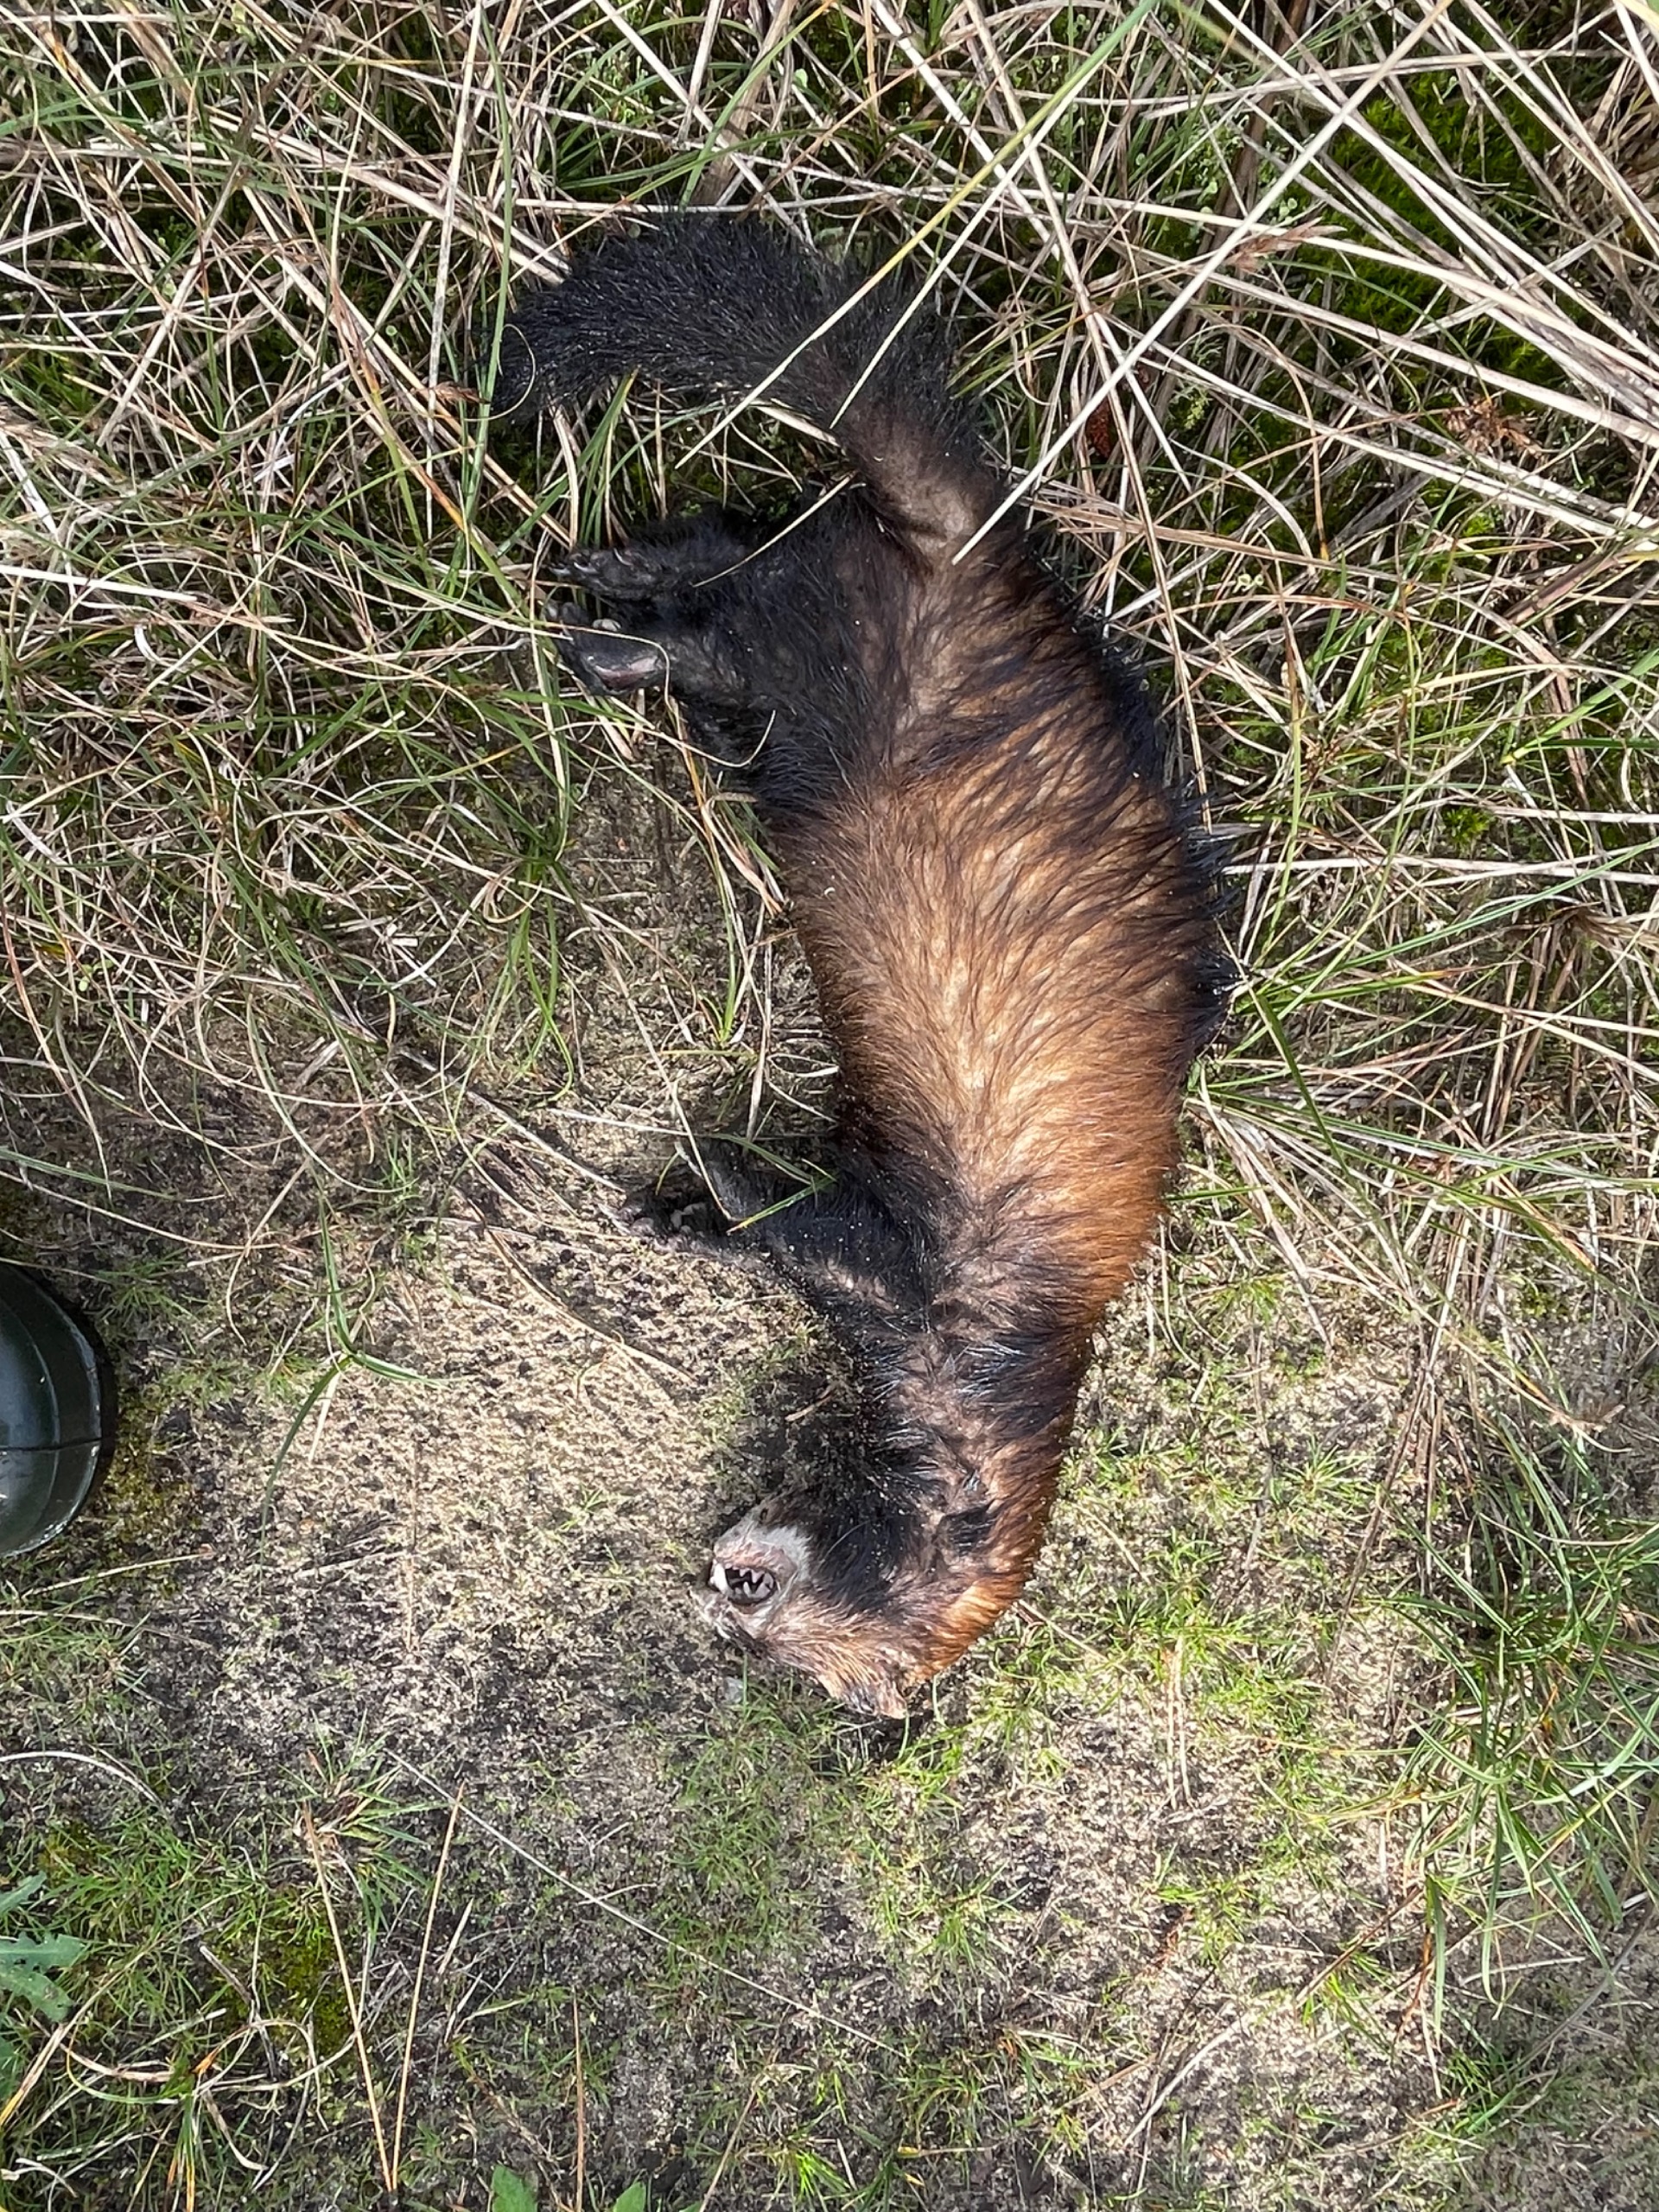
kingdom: Animalia
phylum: Chordata
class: Mammalia
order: Carnivora
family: Mustelidae
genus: Mustela
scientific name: Mustela putorius
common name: Ilder
